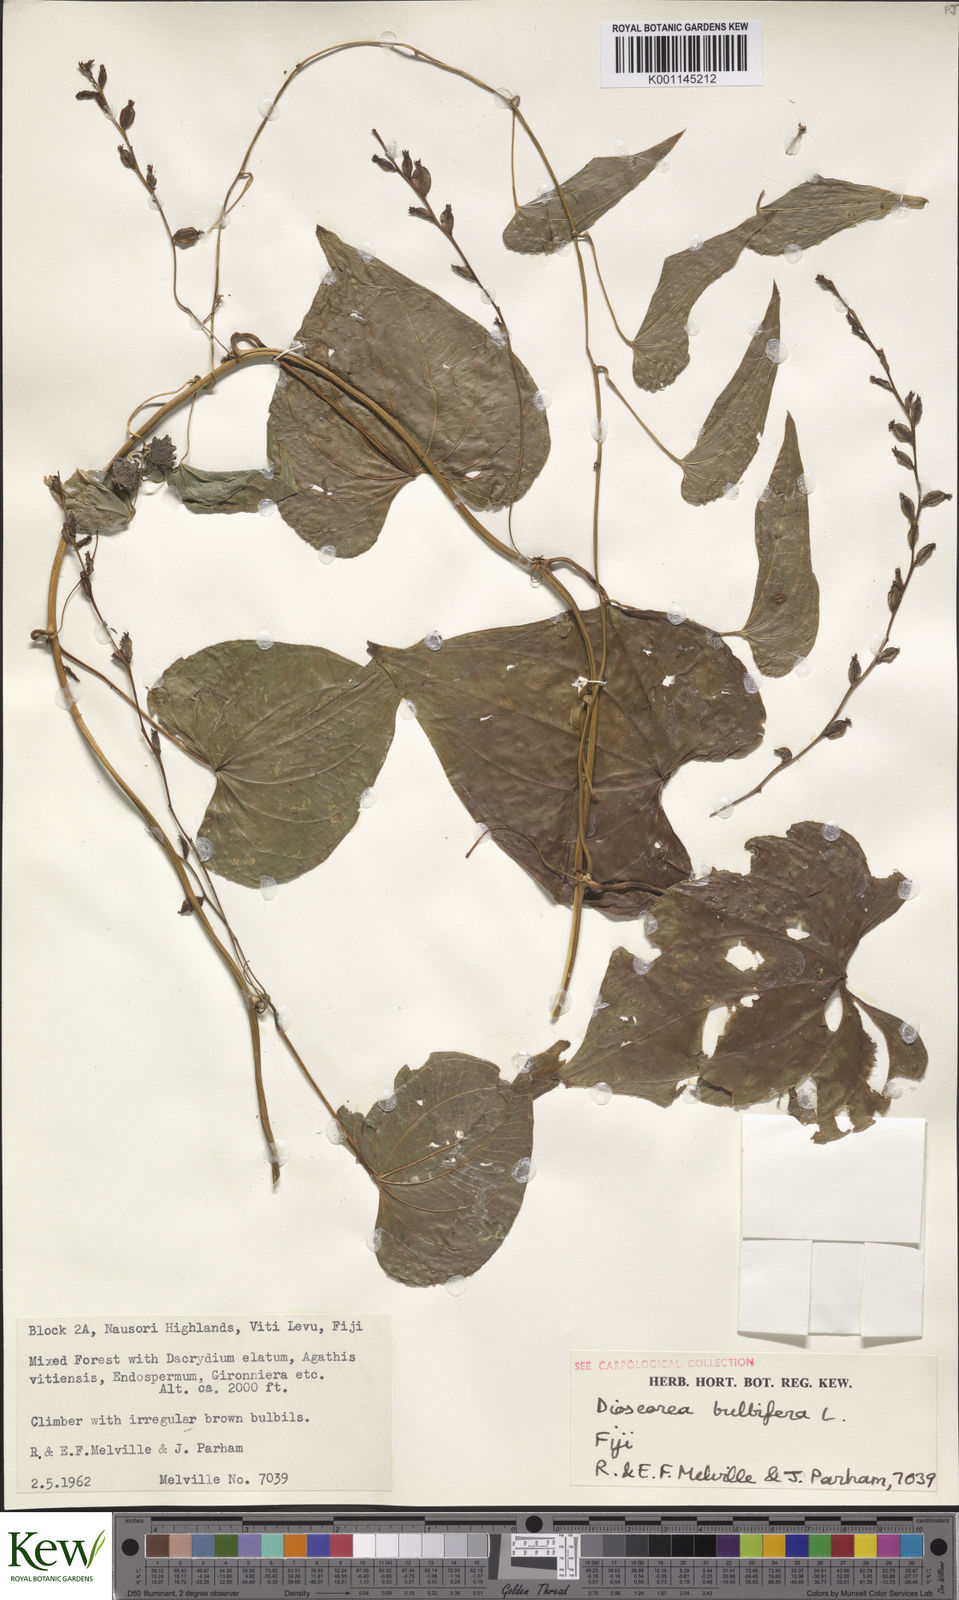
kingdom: Plantae
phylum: Tracheophyta
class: Liliopsida
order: Dioscoreales
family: Dioscoreaceae
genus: Dioscorea
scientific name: Dioscorea bulbifera
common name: Air yam
